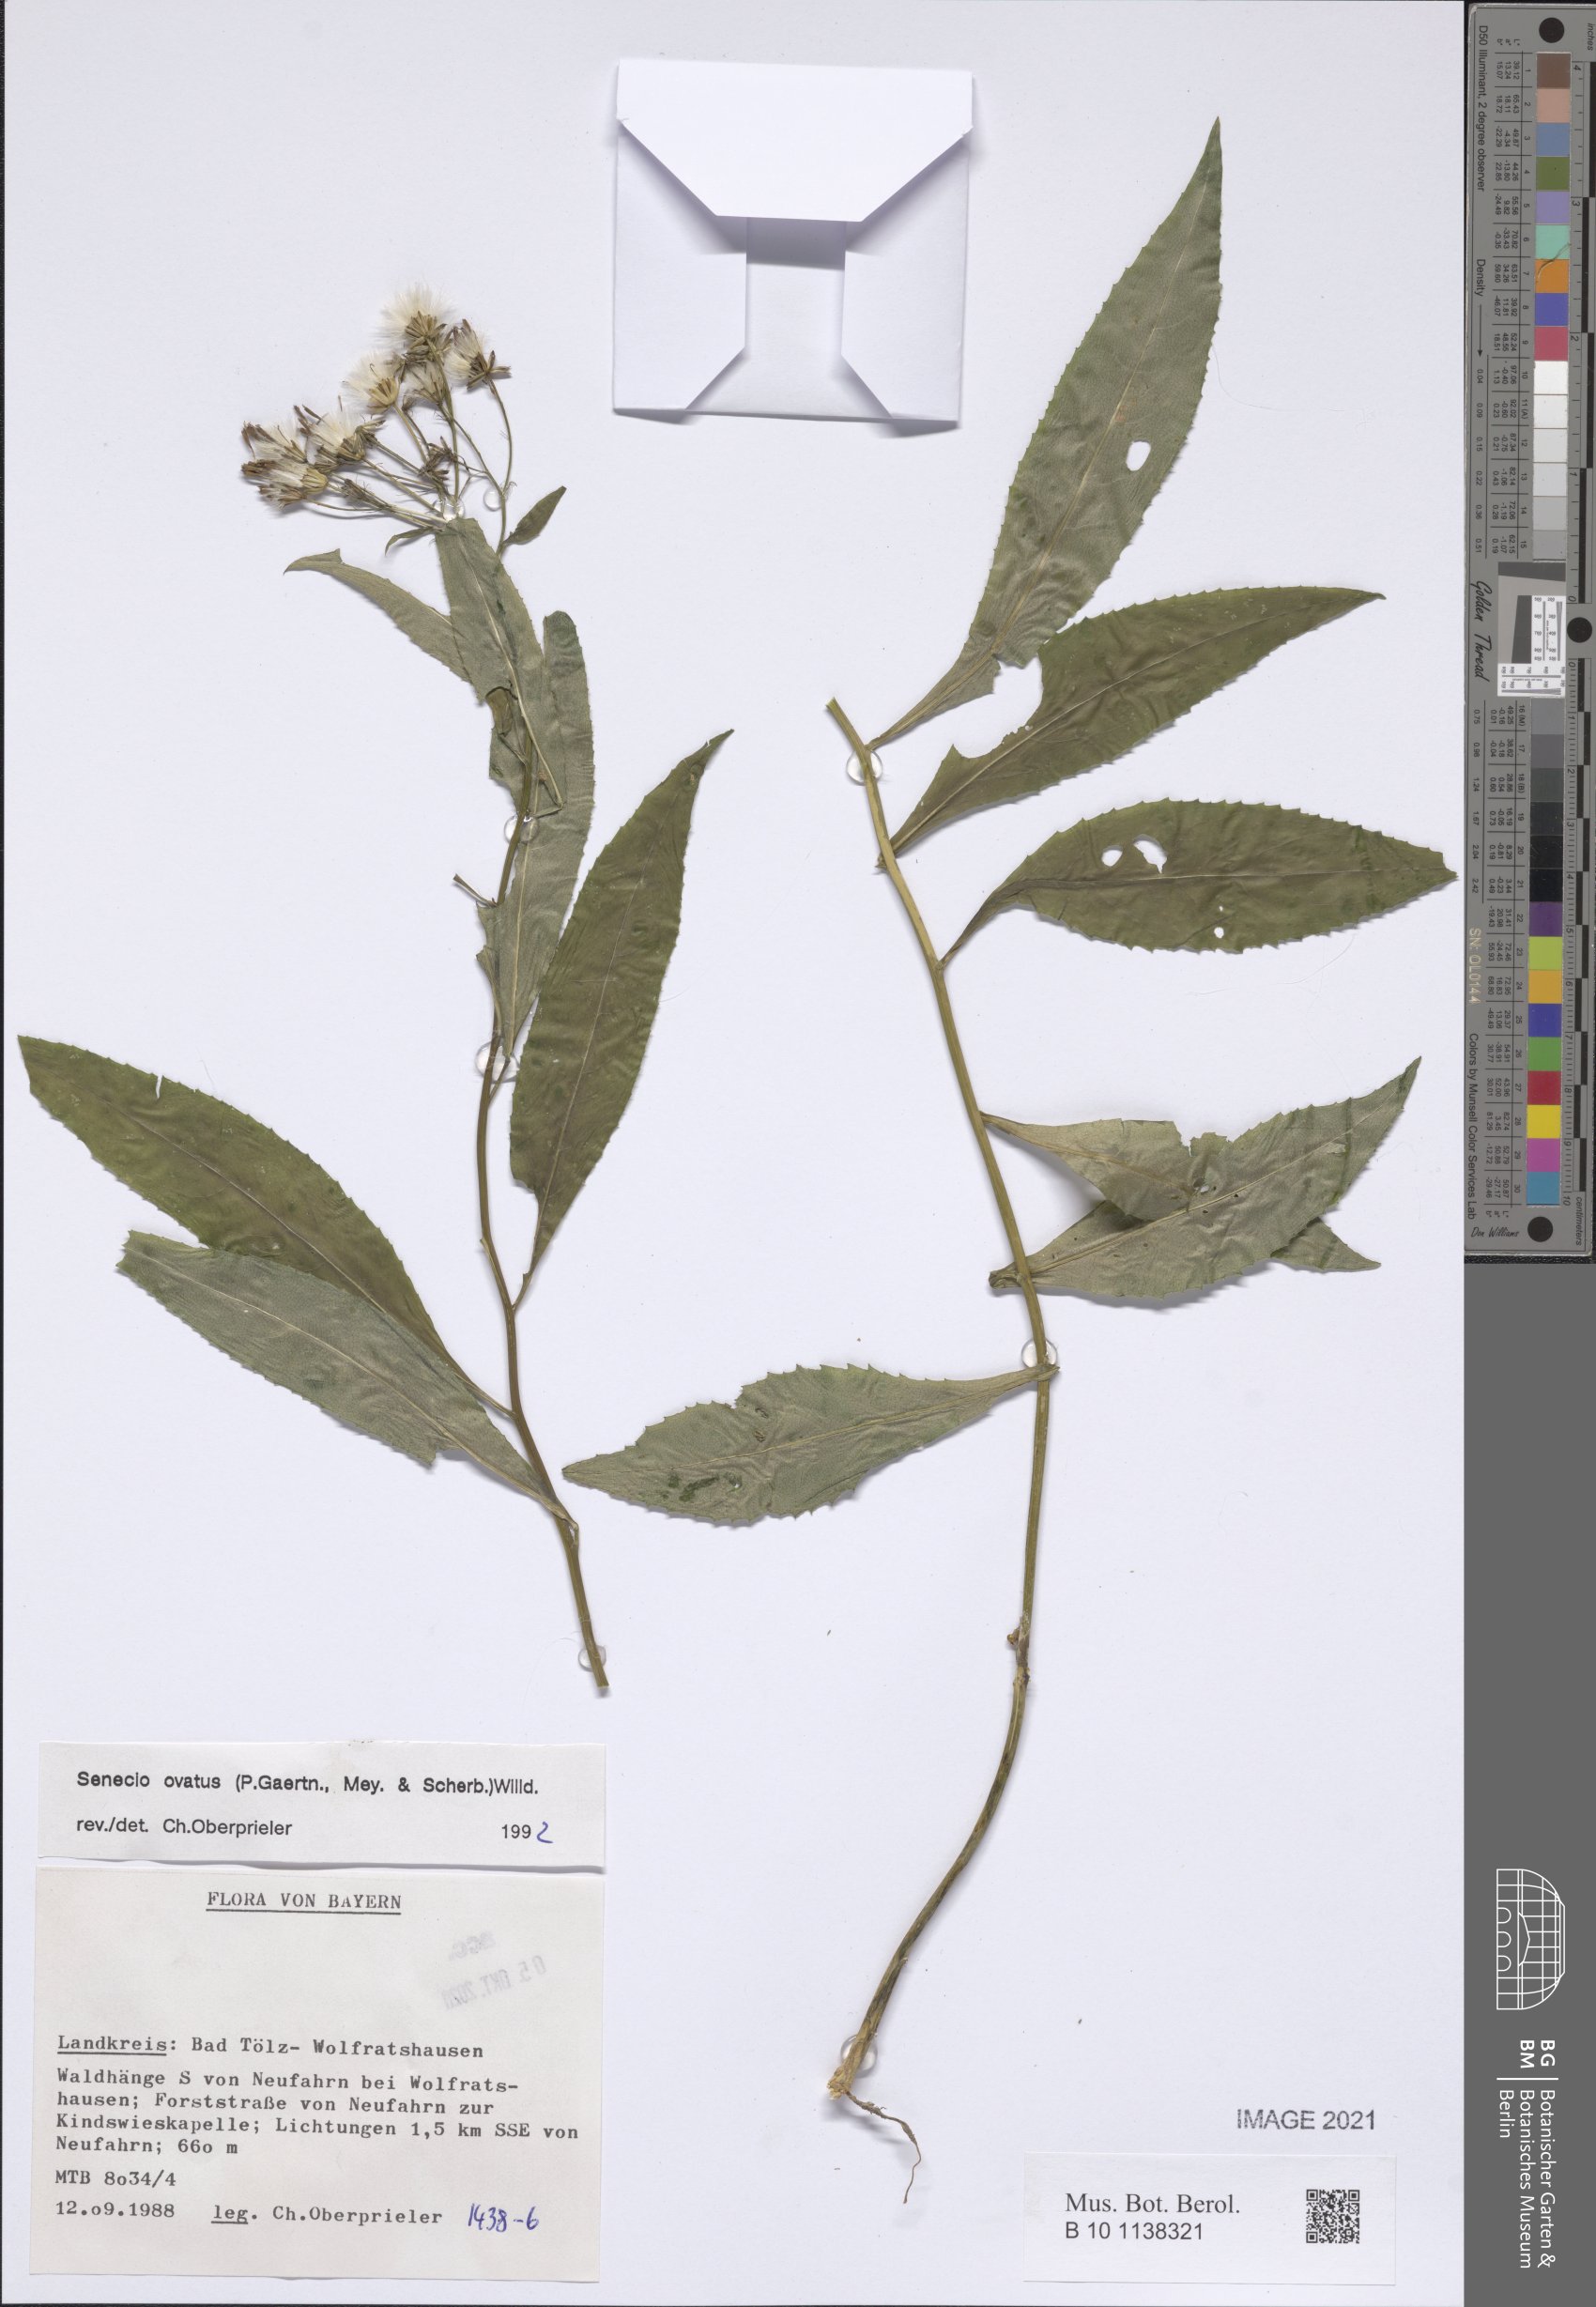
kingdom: Plantae
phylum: Tracheophyta
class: Magnoliopsida
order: Asterales
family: Asteraceae
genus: Senecio
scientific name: Senecio ovatus
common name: Wood ragwort
